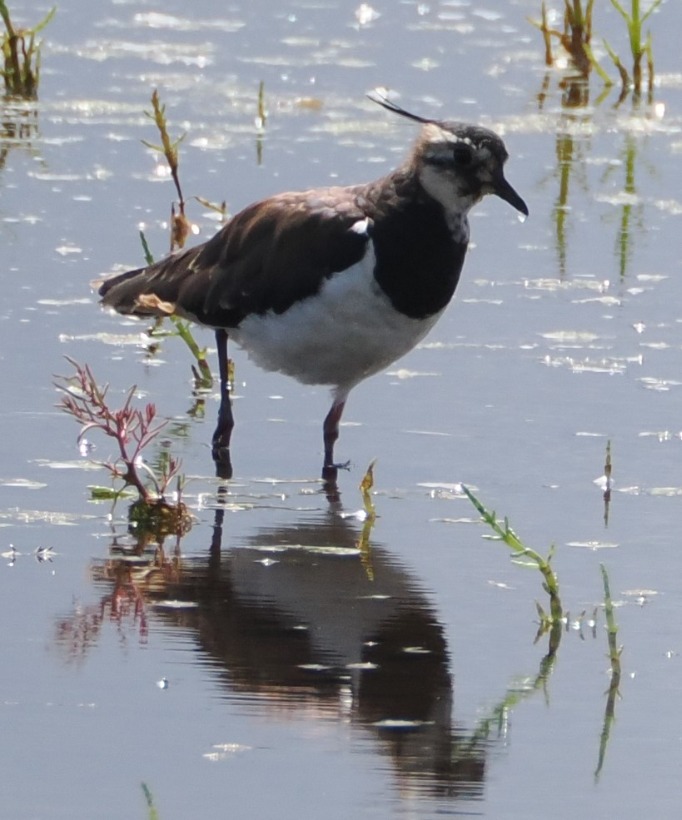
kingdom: Animalia
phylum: Chordata
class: Aves
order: Charadriiformes
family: Charadriidae
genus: Vanellus
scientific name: Vanellus vanellus
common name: Vibe
